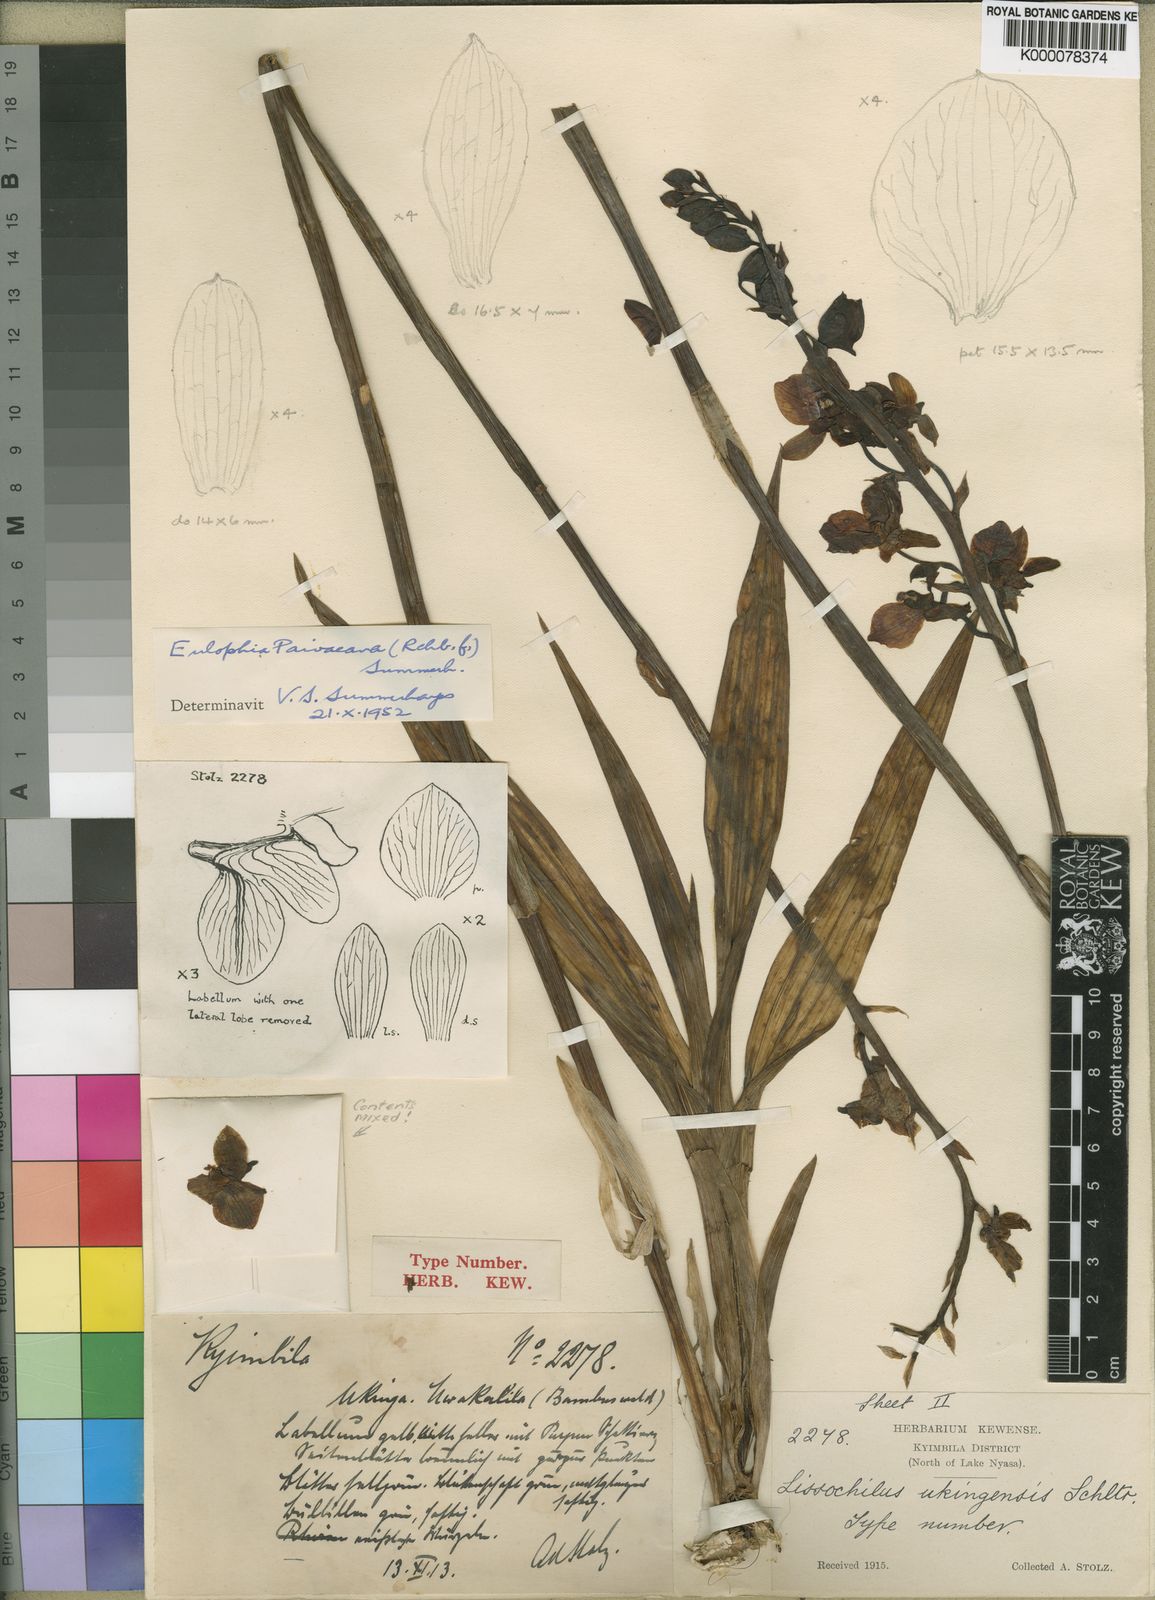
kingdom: Plantae
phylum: Tracheophyta
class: Liliopsida
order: Asparagales
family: Orchidaceae
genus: Eulophia
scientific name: Eulophia streptopetala
